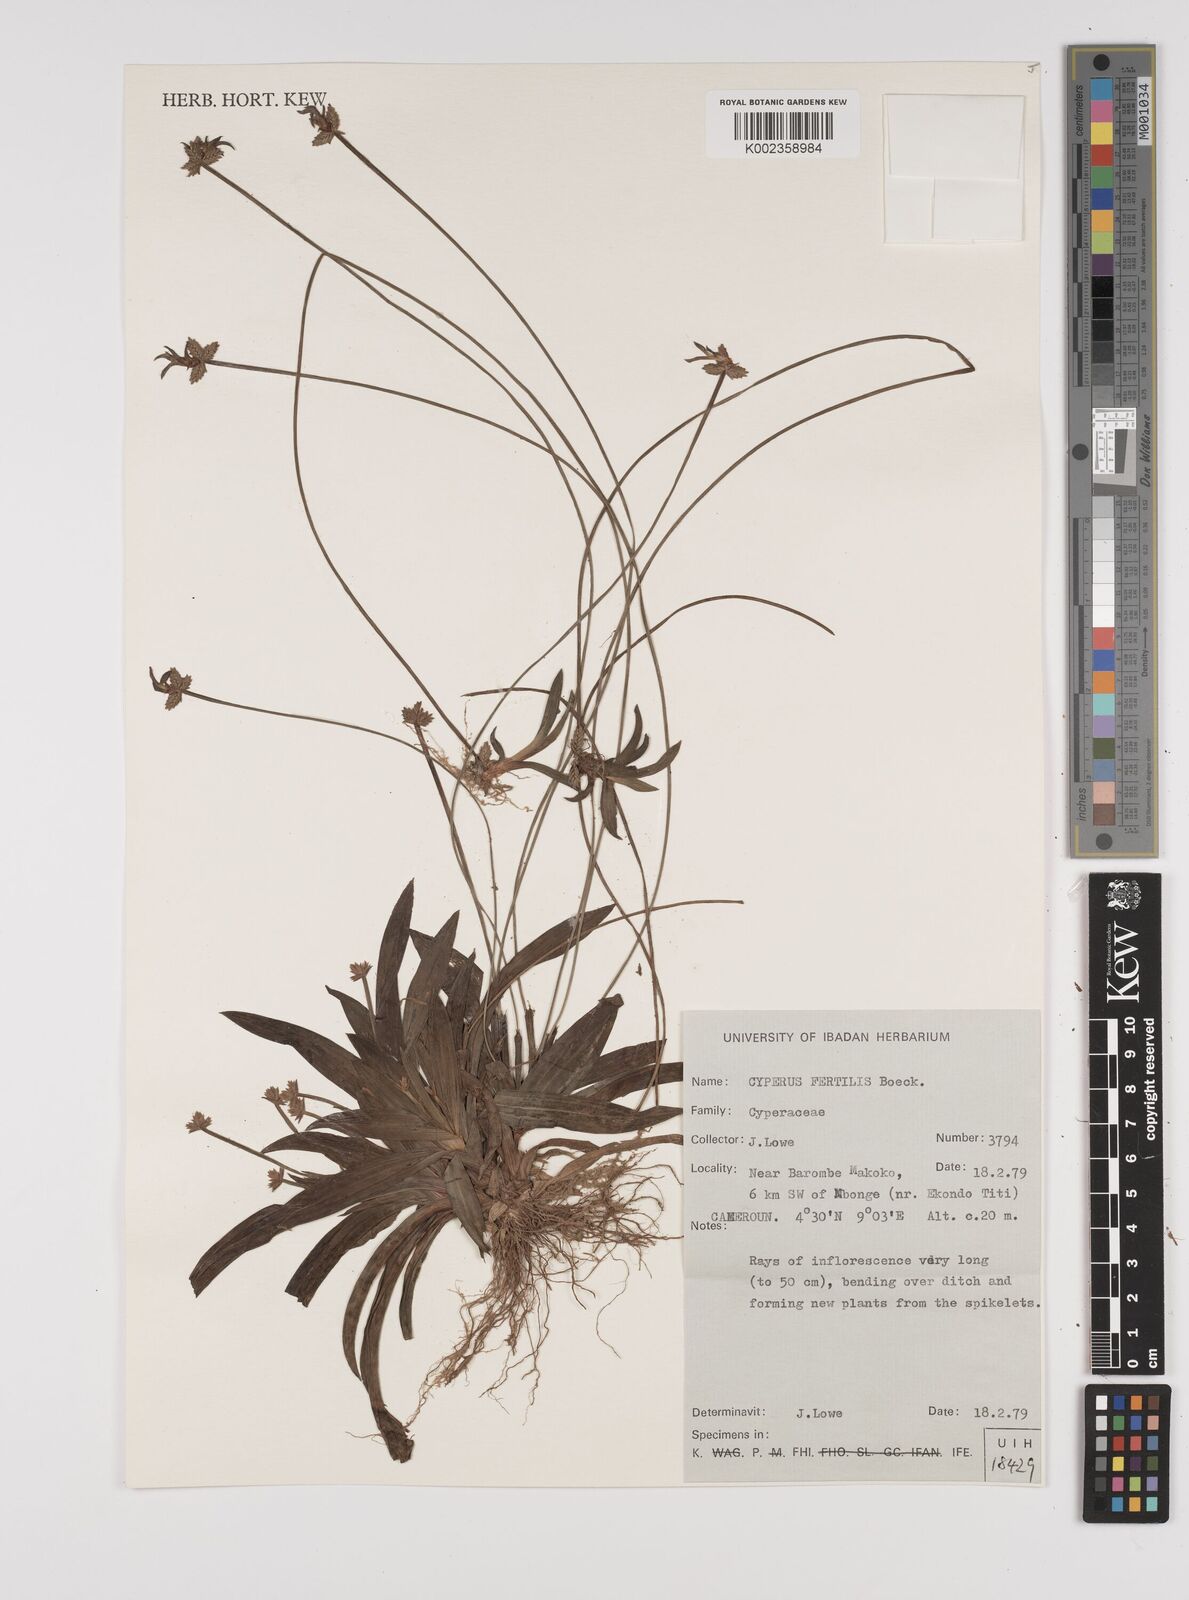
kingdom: Plantae
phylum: Tracheophyta
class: Liliopsida
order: Poales
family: Cyperaceae
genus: Cyperus
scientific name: Cyperus fertilis
